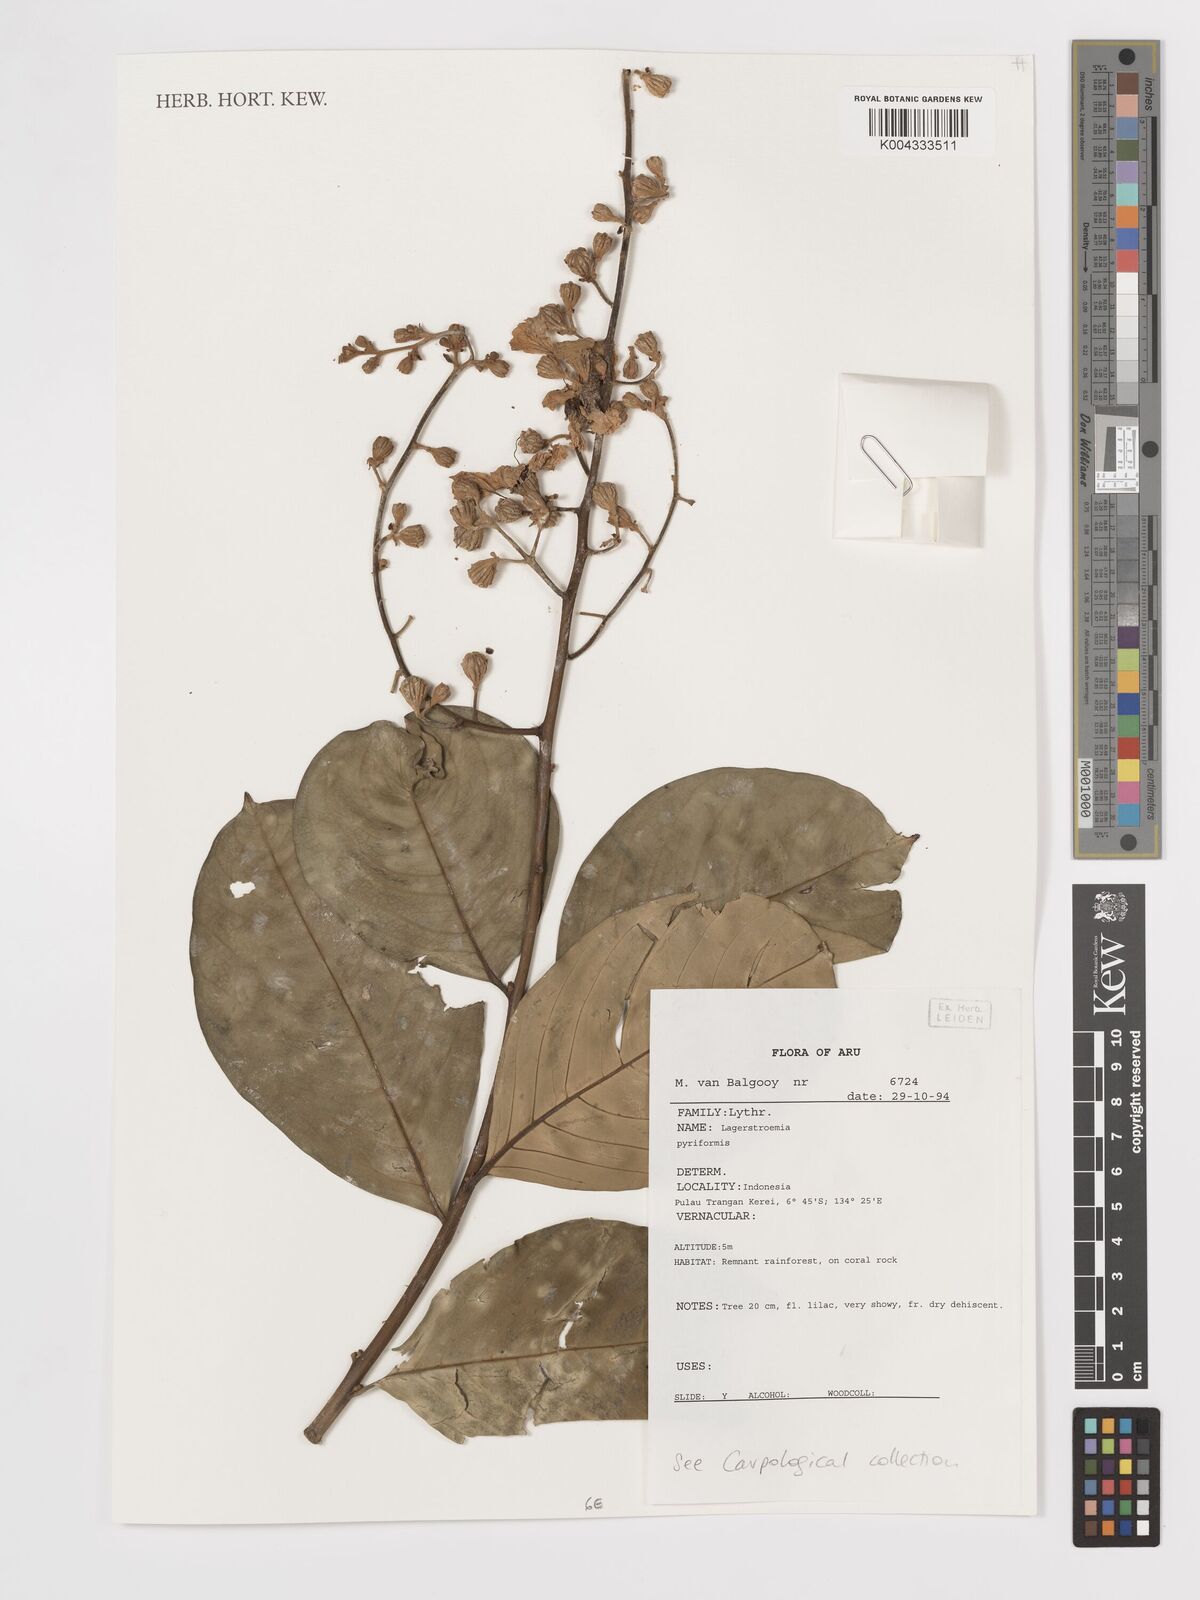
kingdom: Plantae
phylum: Tracheophyta
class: Magnoliopsida
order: Myrtales
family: Lythraceae
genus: Lagerstroemia
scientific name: Lagerstroemia celebica
